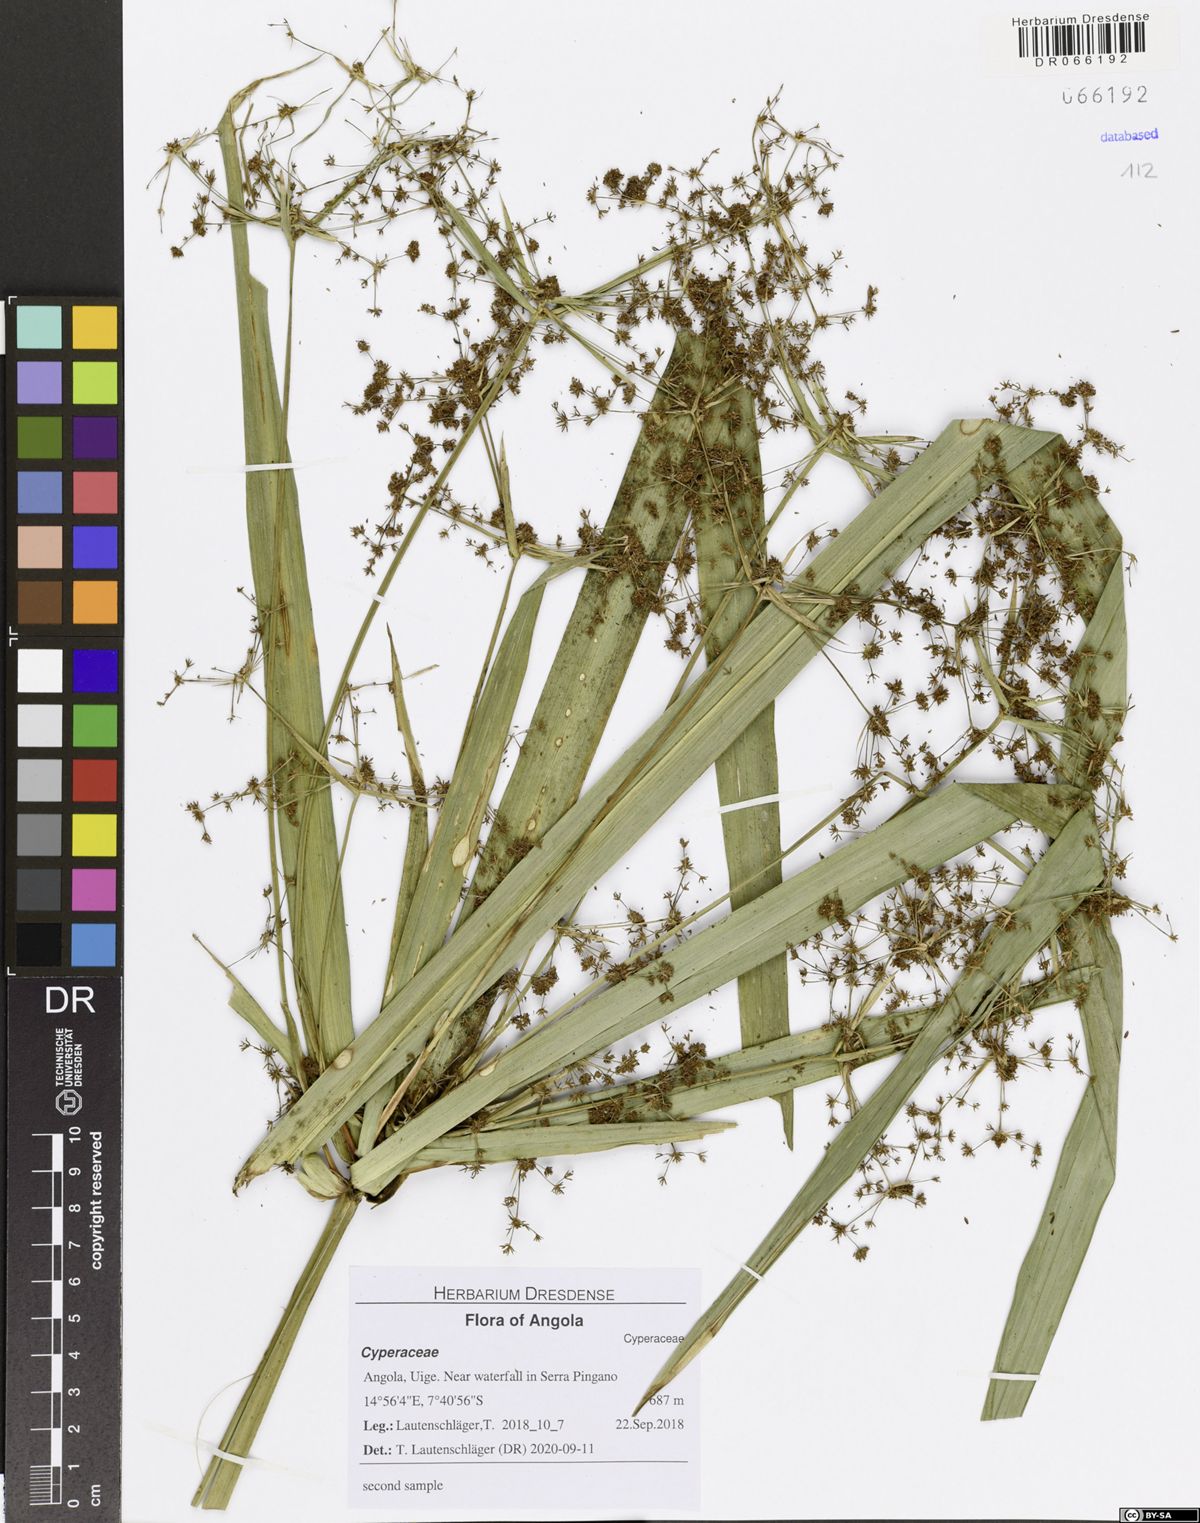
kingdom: Plantae
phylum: Tracheophyta
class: Liliopsida
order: Poales
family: Cyperaceae
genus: Cyperus
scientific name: Cyperus renschii
